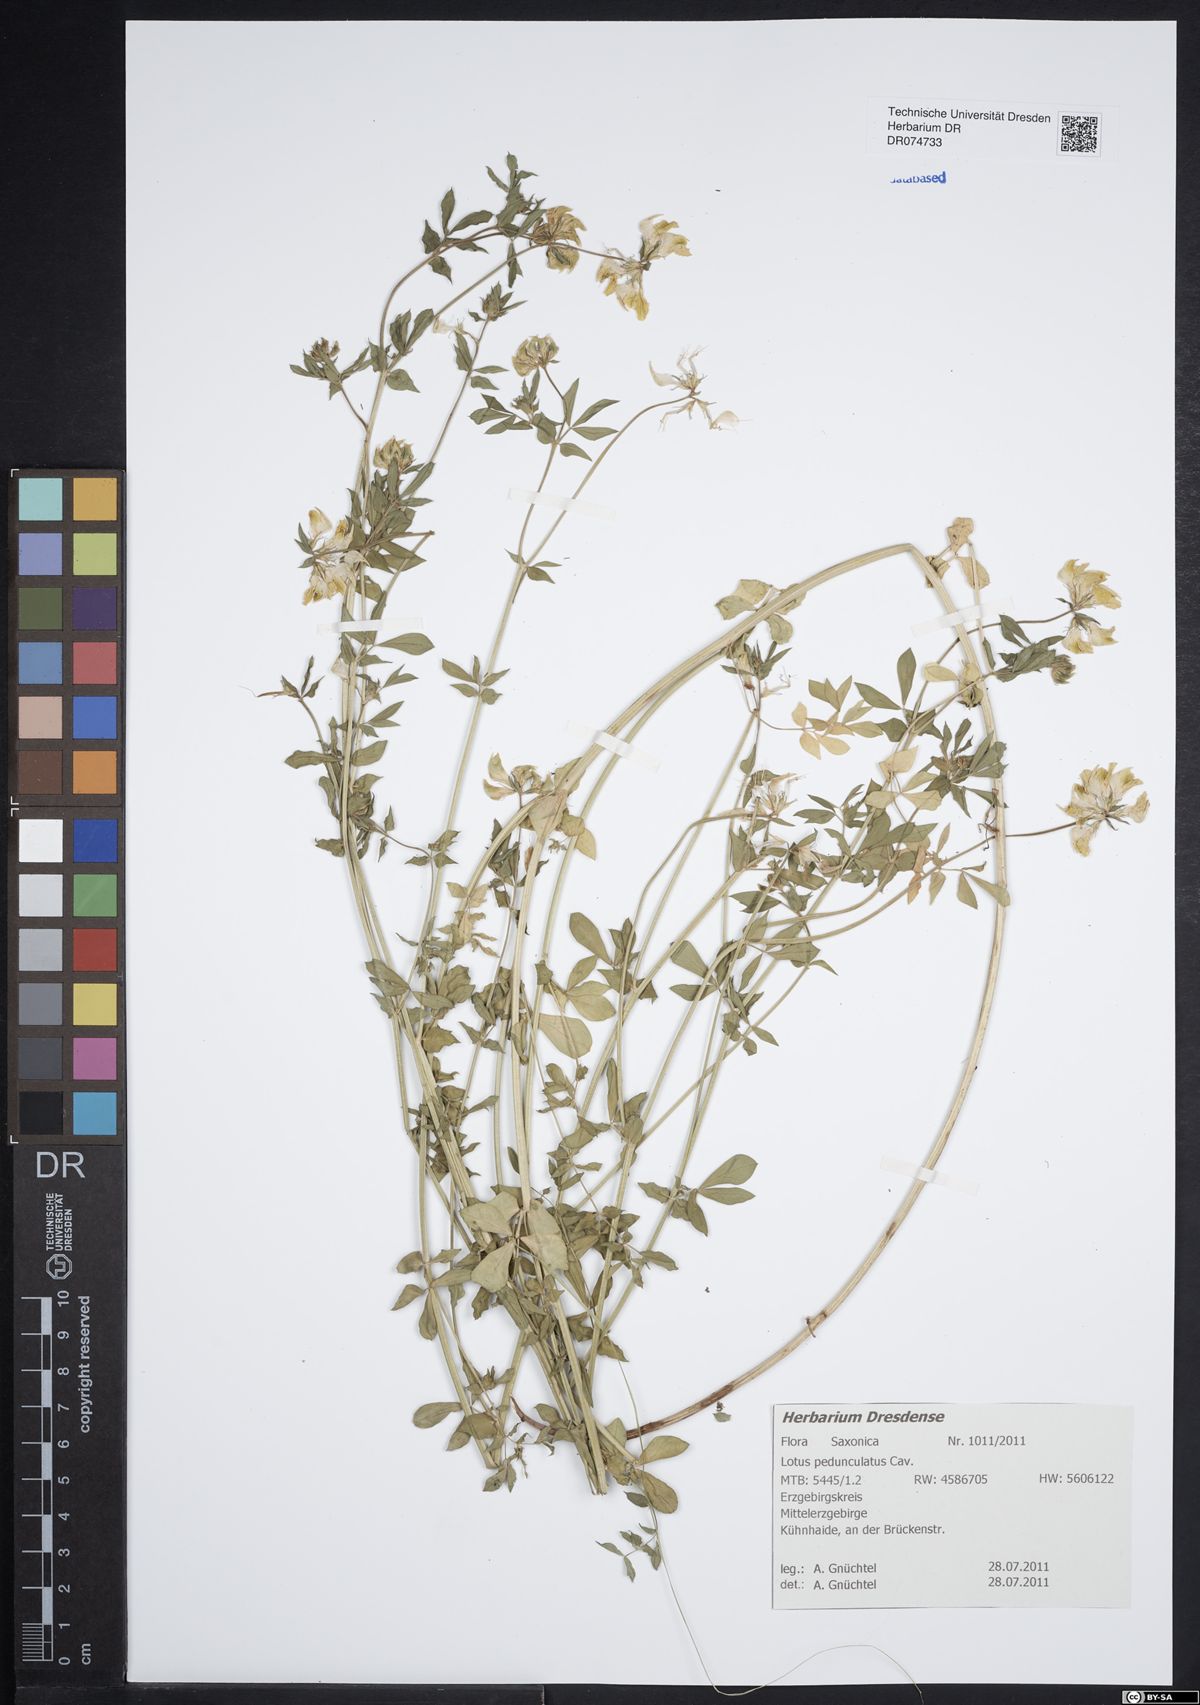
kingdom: Plantae
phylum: Tracheophyta
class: Magnoliopsida
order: Fabales
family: Fabaceae
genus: Lotus
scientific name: Lotus pedunculatus
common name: Greater birdsfoot-trefoil
